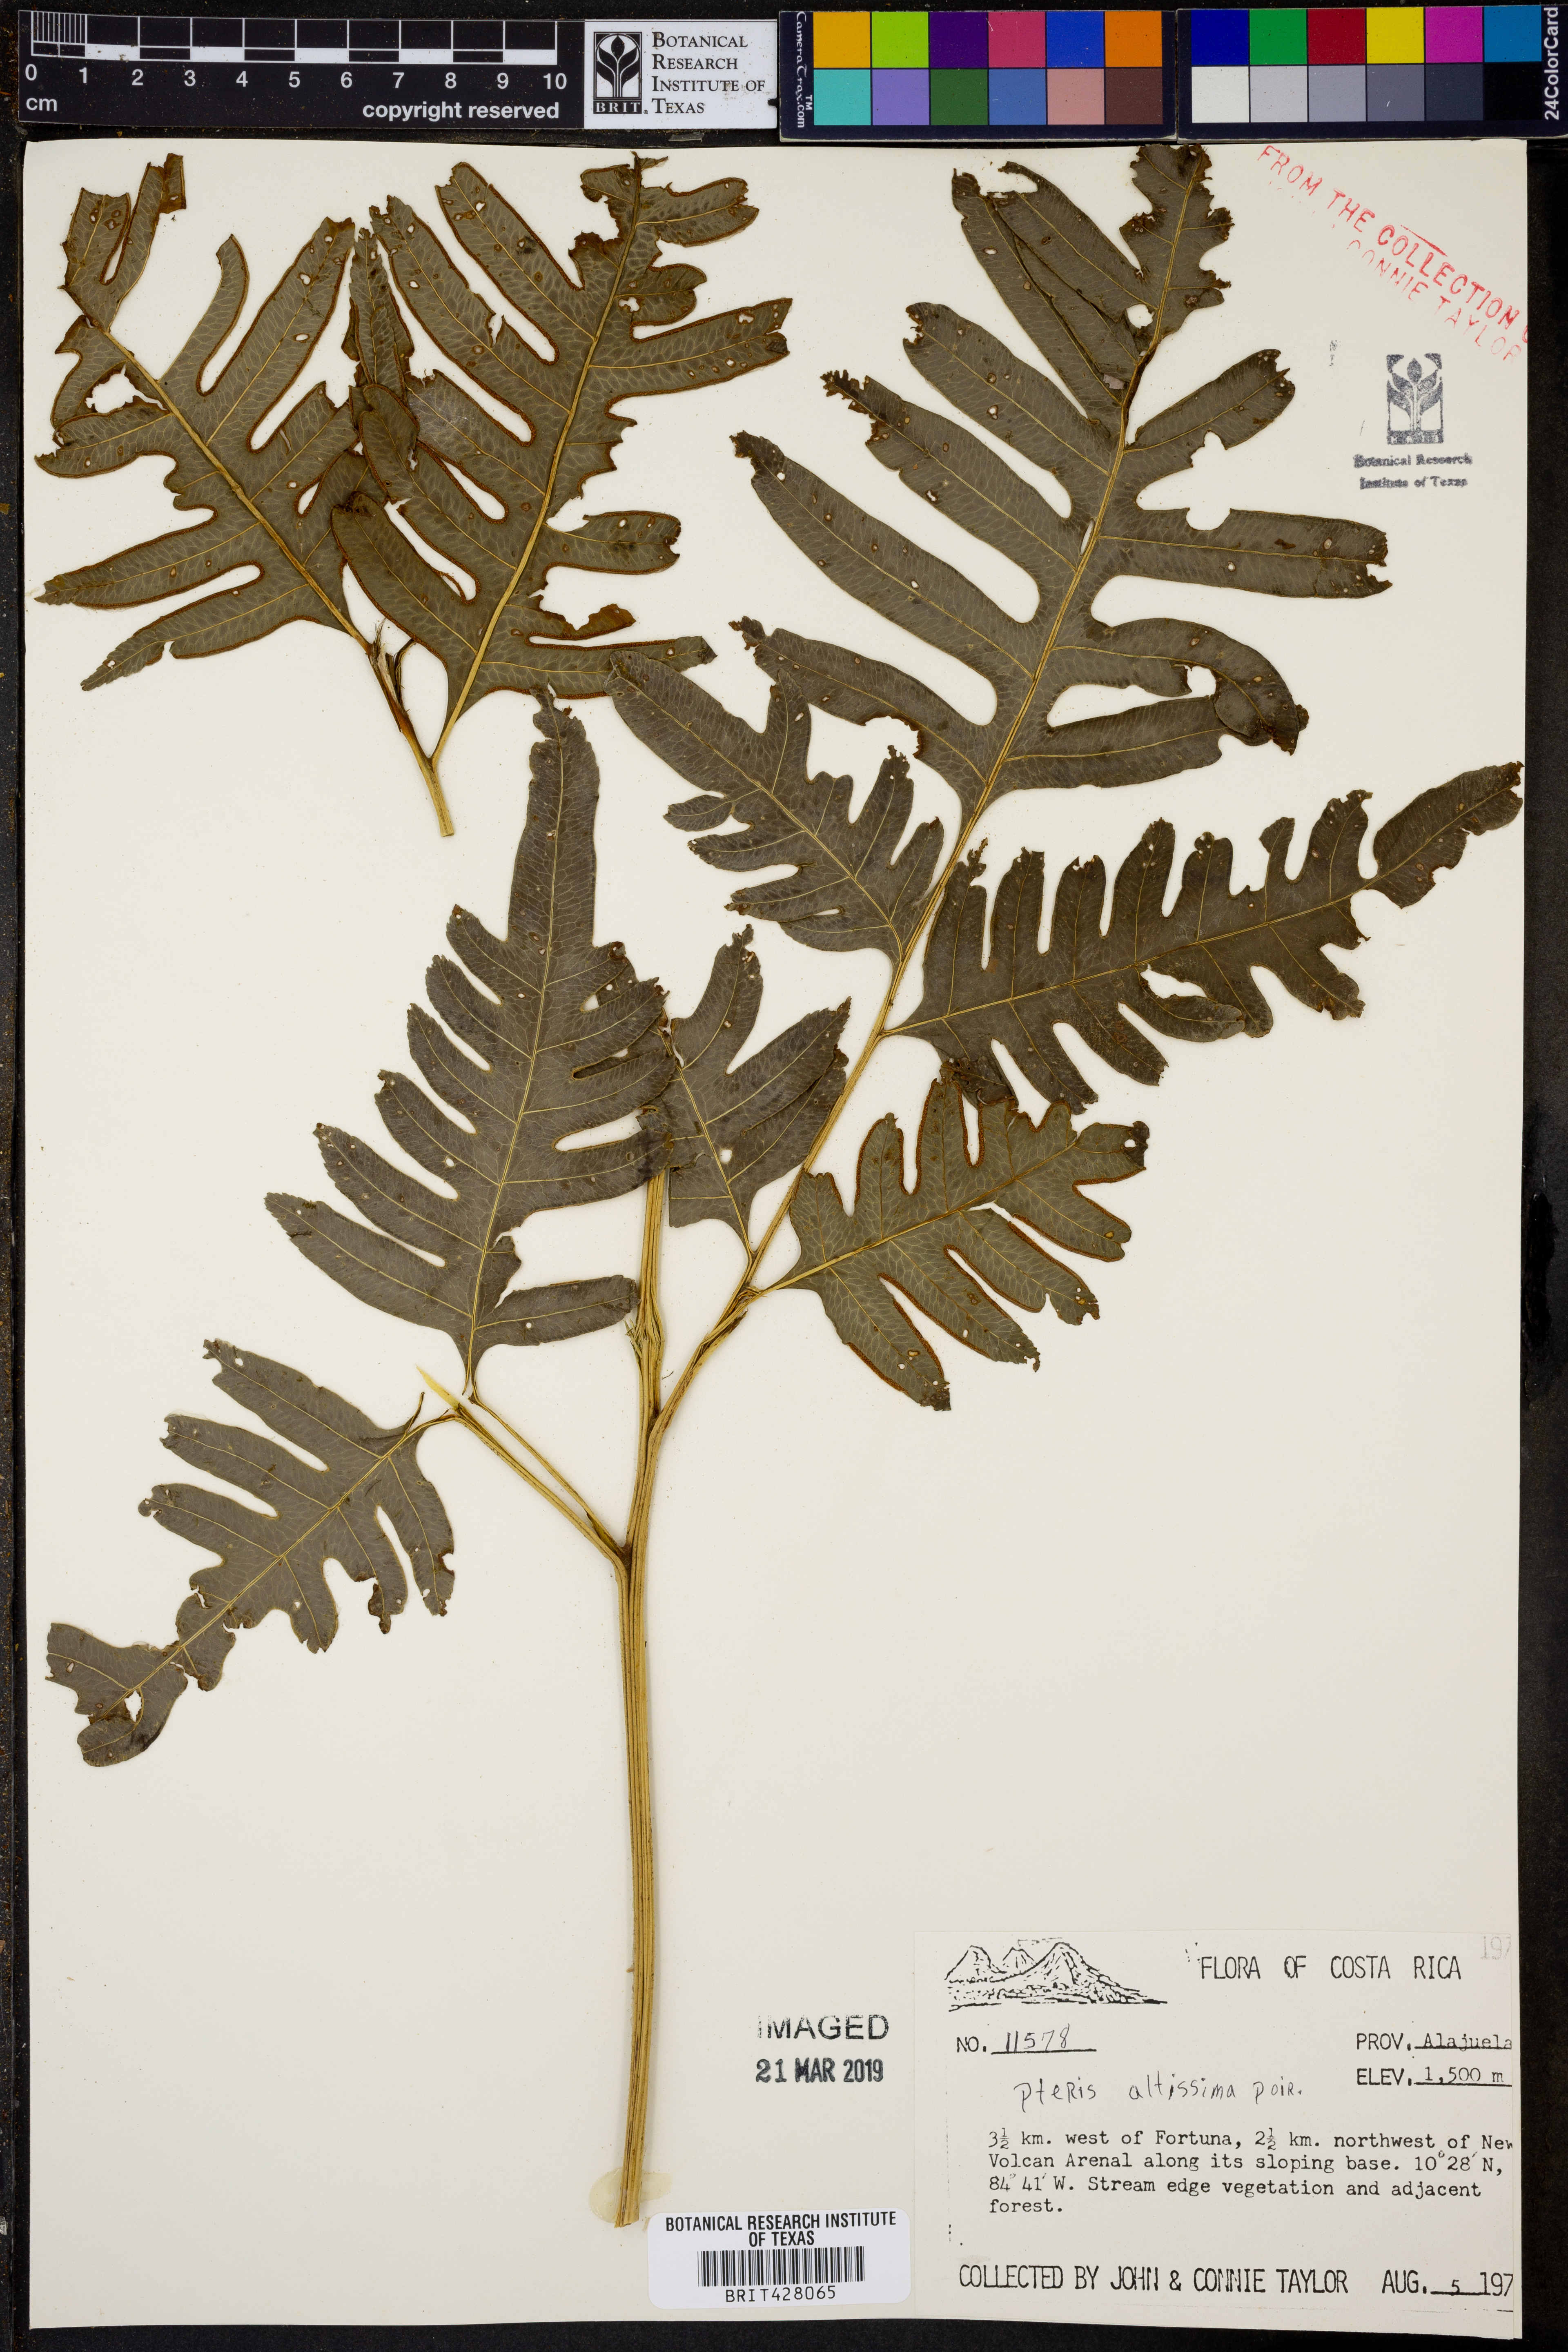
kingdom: Plantae
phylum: Tracheophyta
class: Polypodiopsida
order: Polypodiales
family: Pteridaceae
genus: Pteris
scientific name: Pteris altissima
